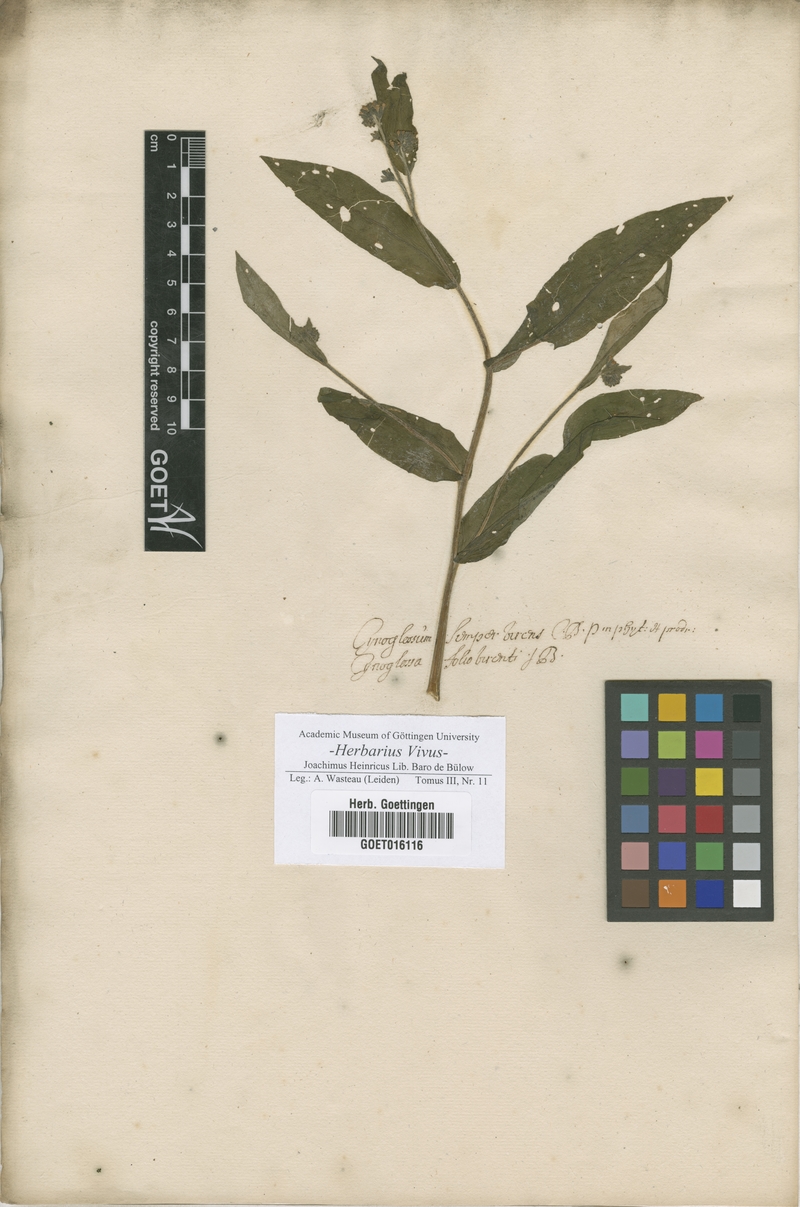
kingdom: Plantae
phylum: Tracheophyta
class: Magnoliopsida
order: Boraginales
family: Boraginaceae
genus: Cynoglossum
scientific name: Cynoglossum
